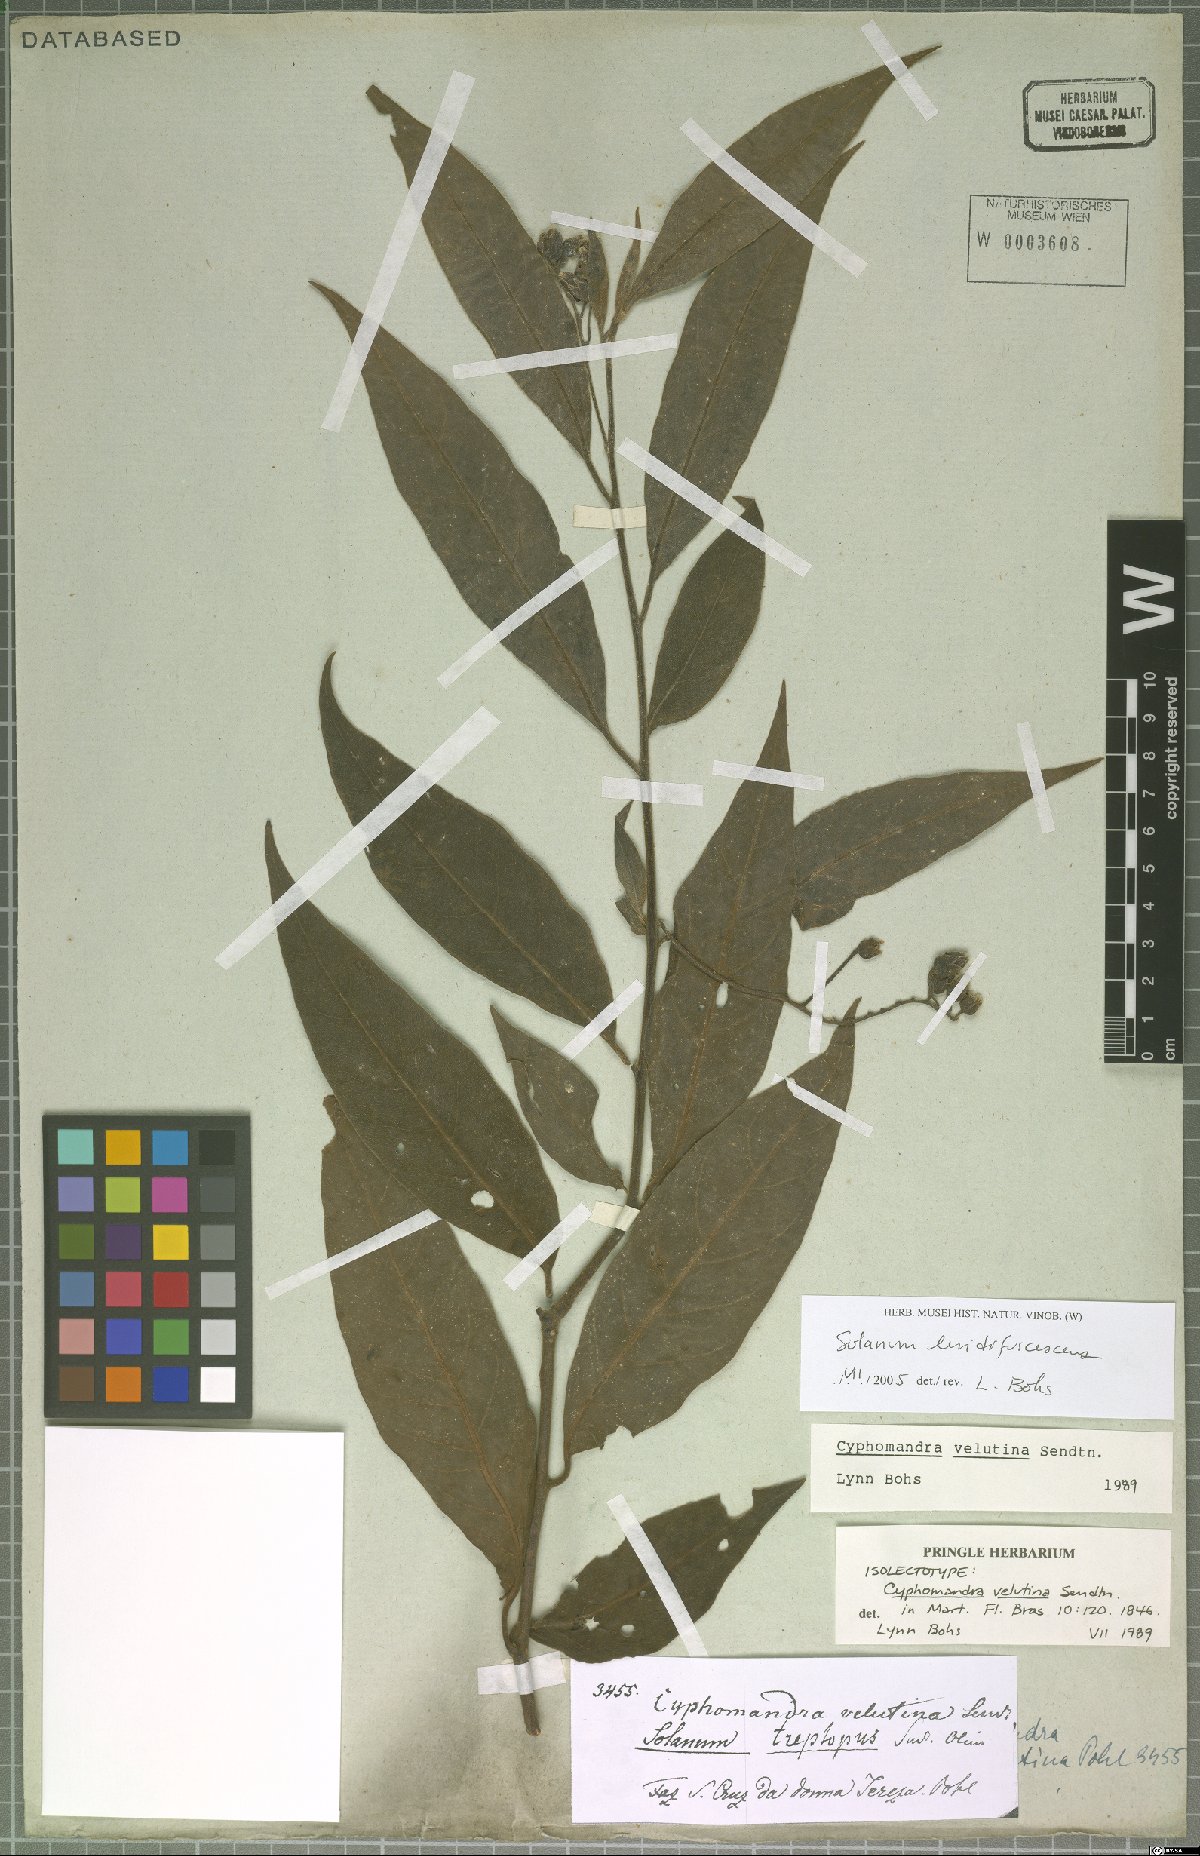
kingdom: Plantae
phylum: Tracheophyta
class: Magnoliopsida
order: Solanales
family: Solanaceae
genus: Solanum
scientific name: Solanum luridifuscescens
